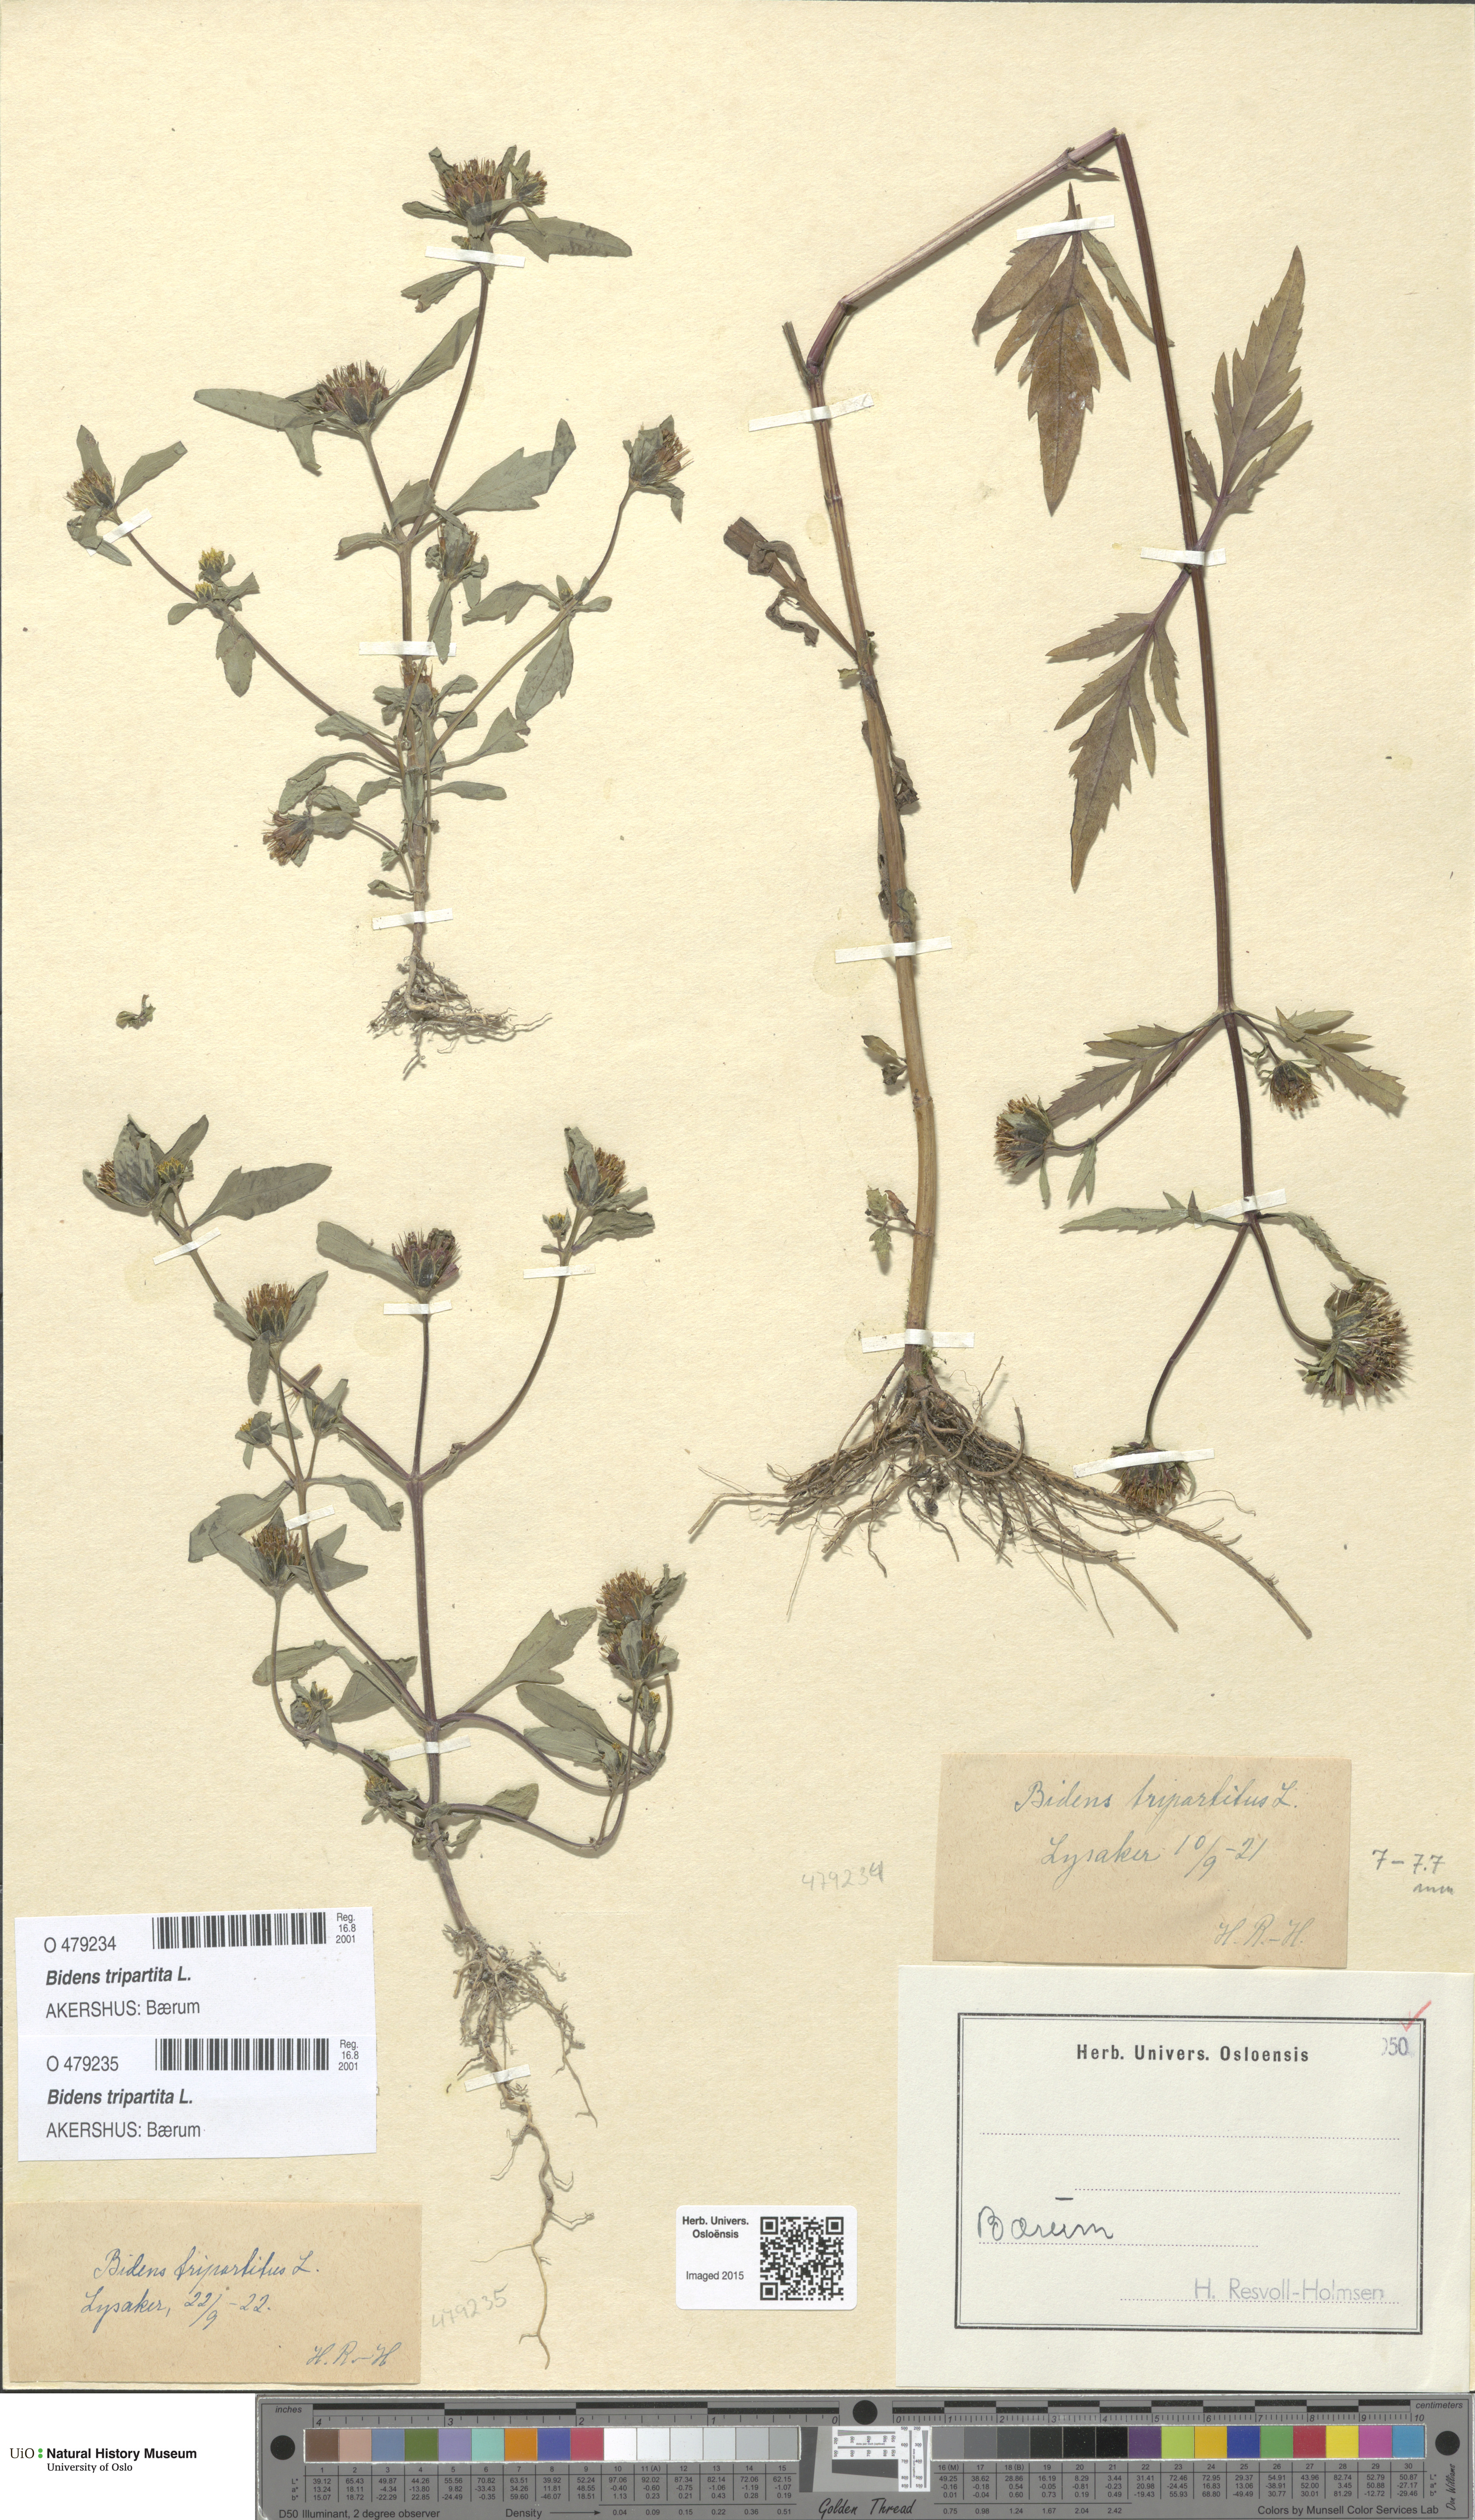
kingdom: Plantae
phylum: Tracheophyta
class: Magnoliopsida
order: Asterales
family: Asteraceae
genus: Bidens
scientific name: Bidens tripartita
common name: Trifid bur-marigold
